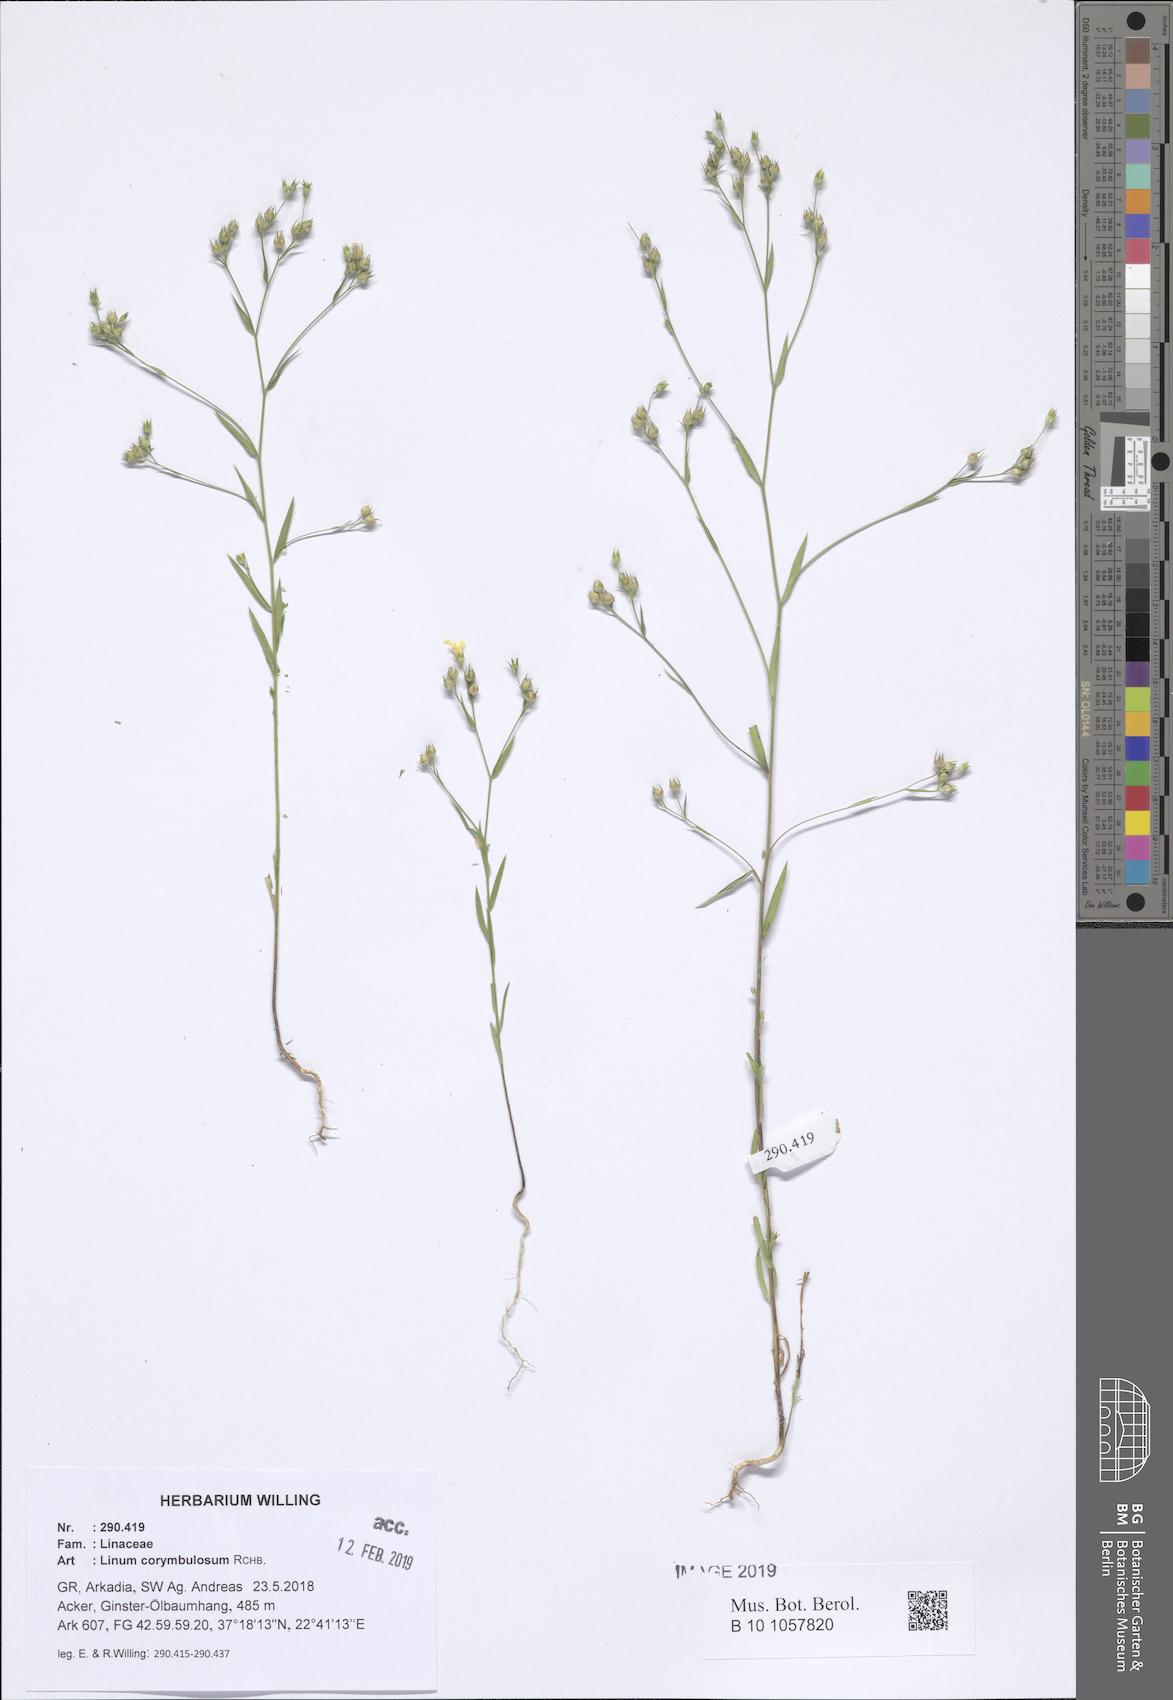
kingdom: Plantae
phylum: Tracheophyta
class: Magnoliopsida
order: Malpighiales
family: Linaceae
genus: Linum
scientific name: Linum corymbulosum
